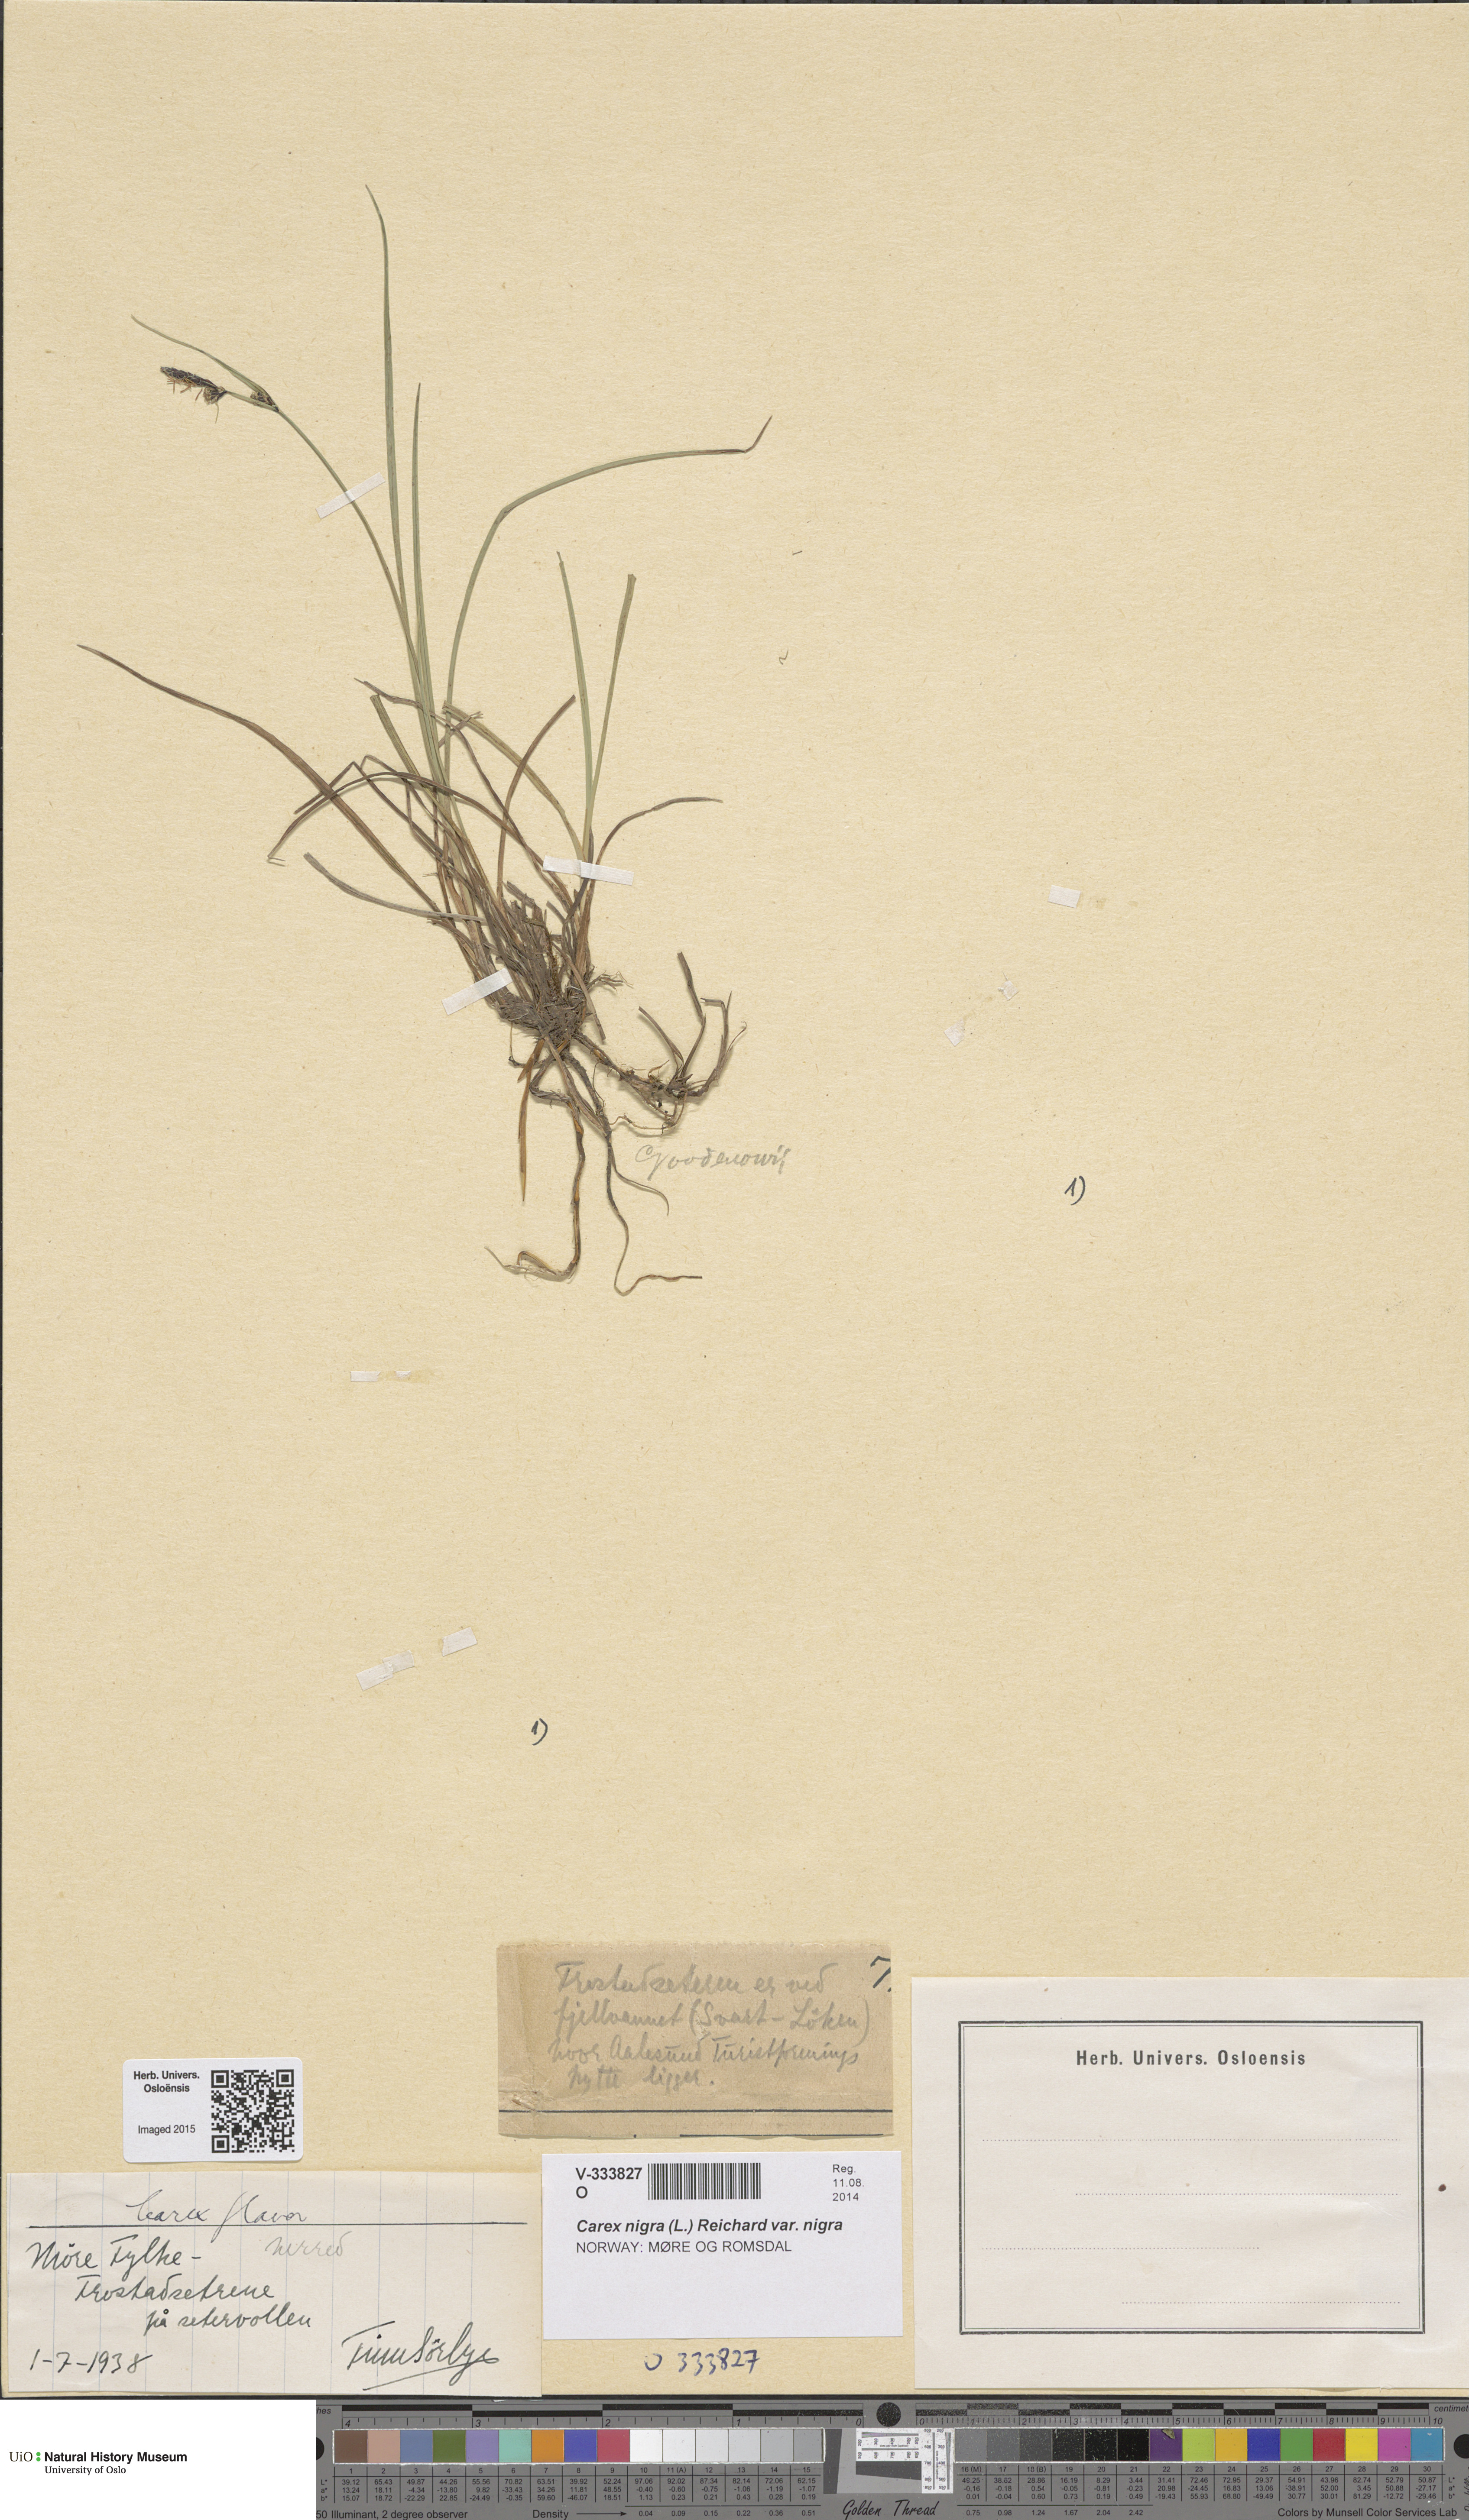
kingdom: Plantae
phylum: Tracheophyta
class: Liliopsida
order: Poales
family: Cyperaceae
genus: Carex
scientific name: Carex nigra
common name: Common sedge
